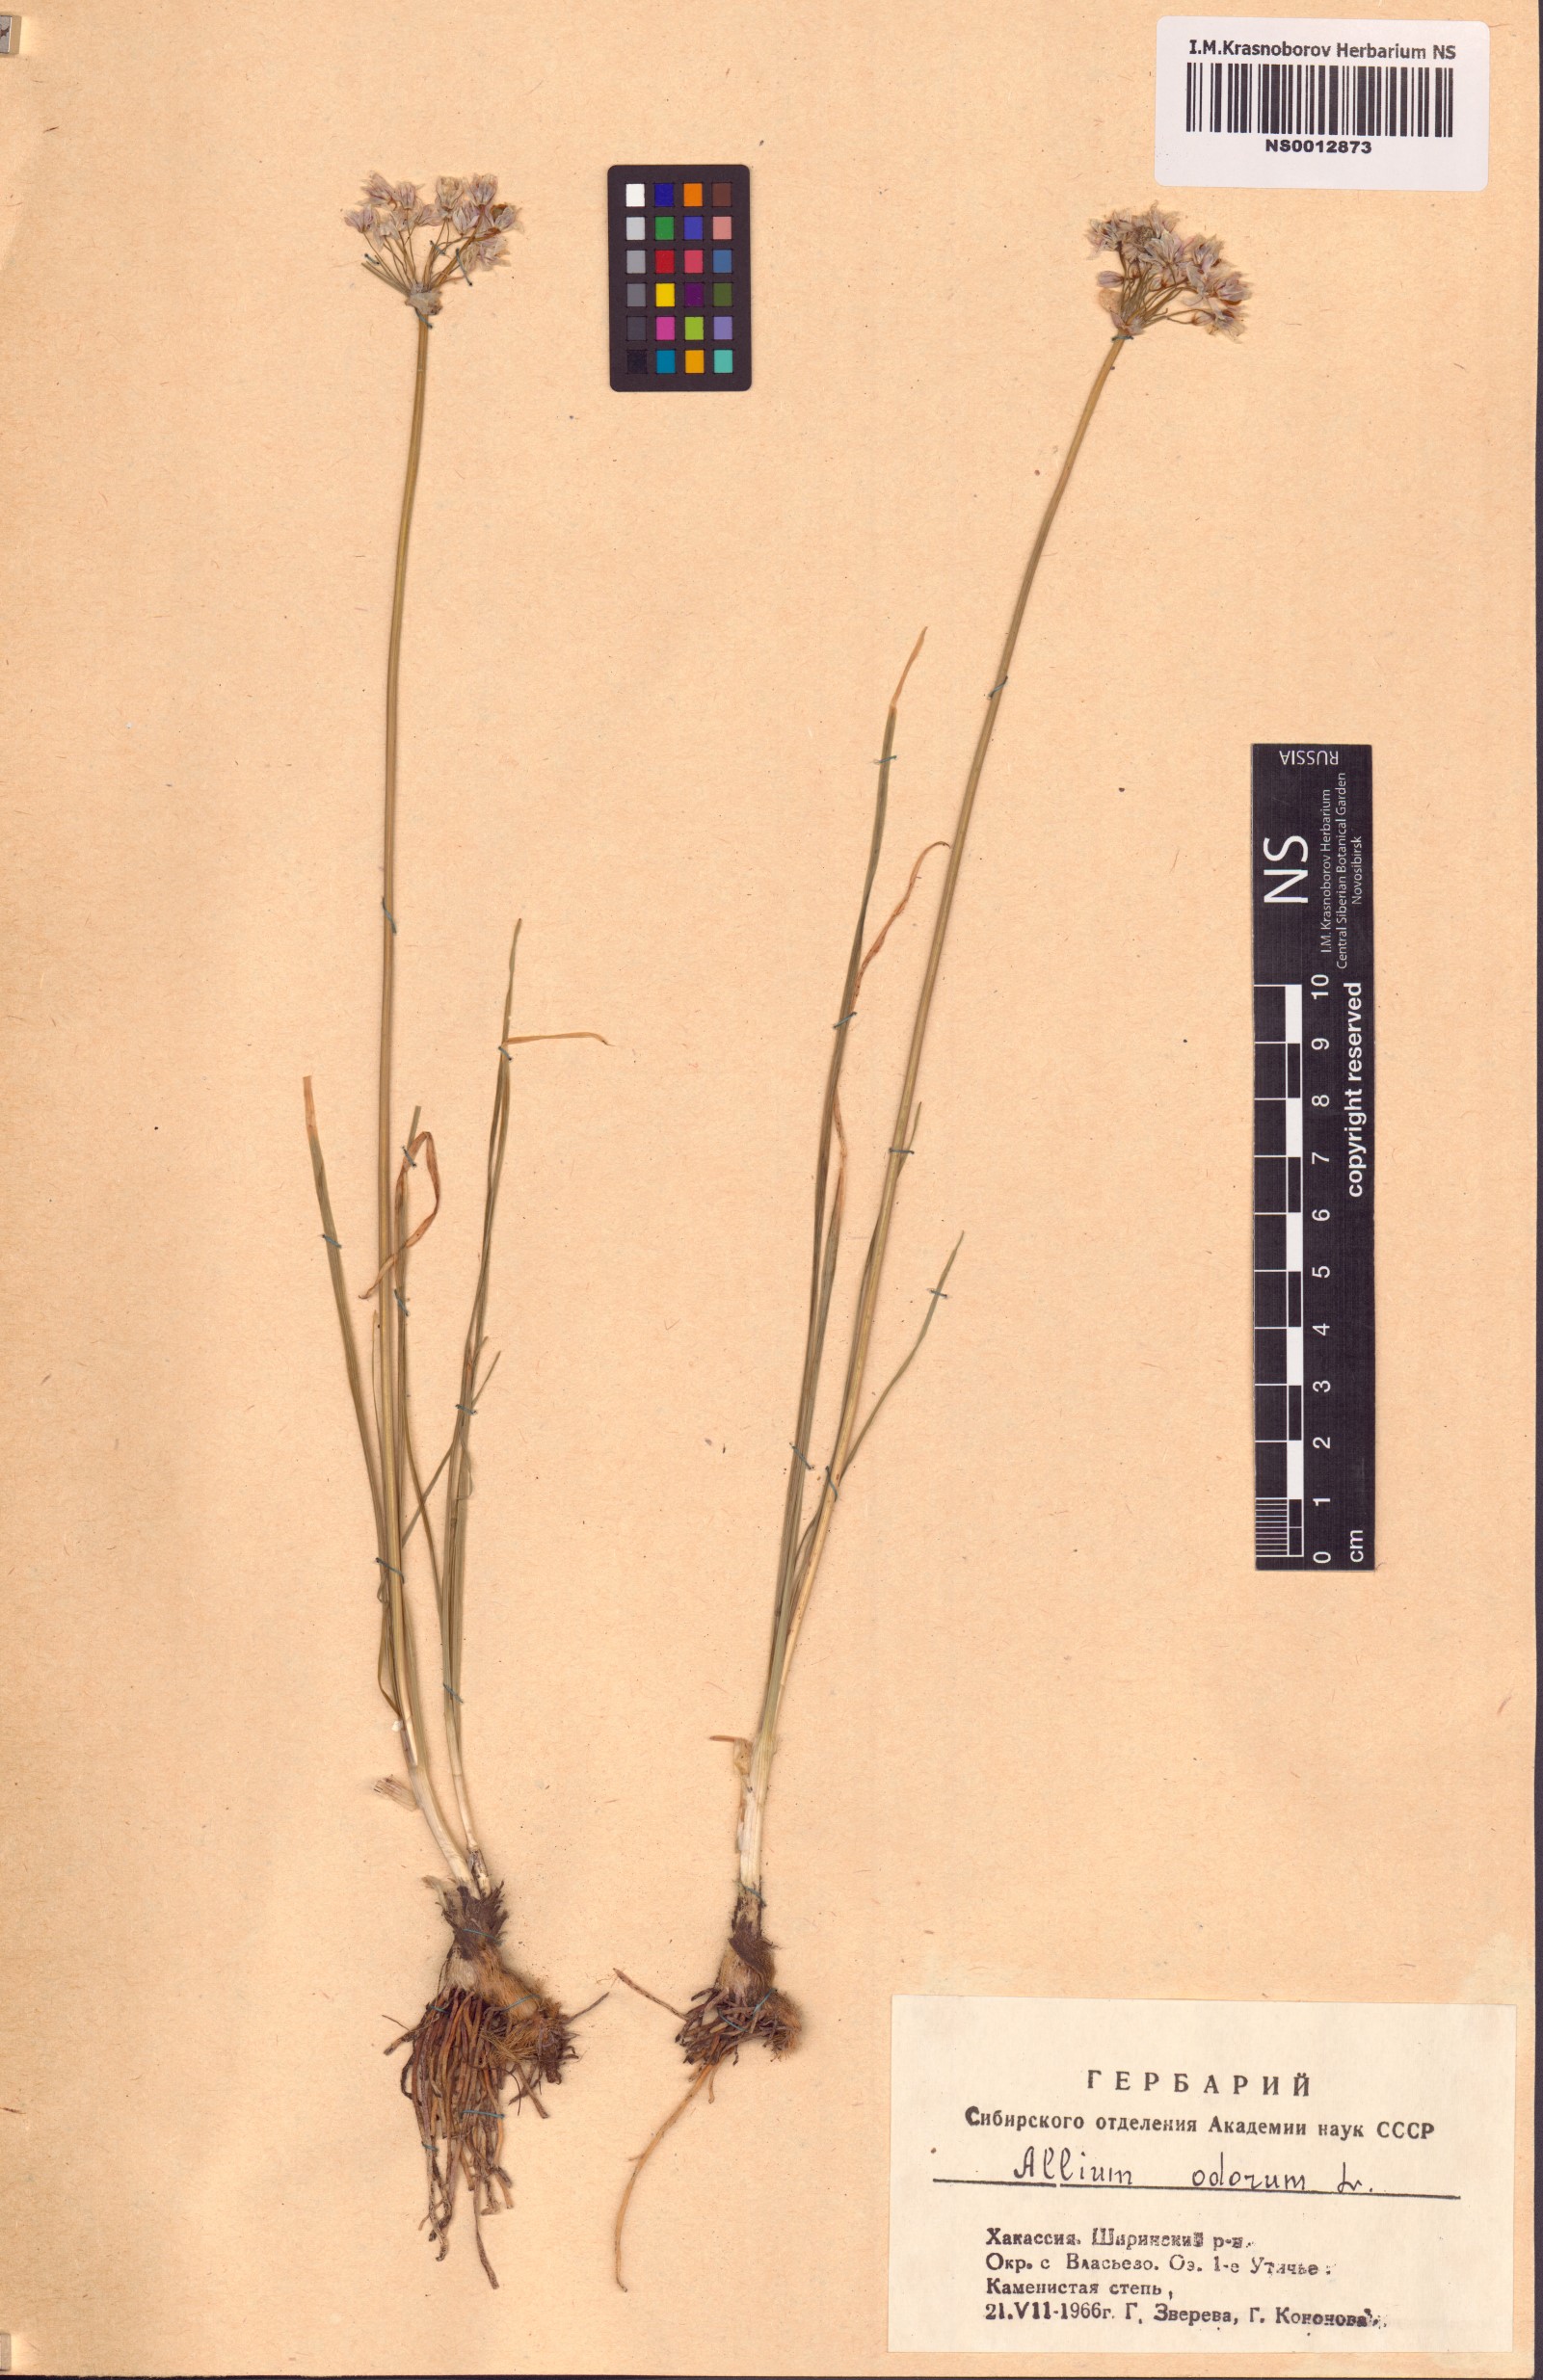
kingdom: Plantae
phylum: Tracheophyta
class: Liliopsida
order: Asparagales
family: Amaryllidaceae
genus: Allium
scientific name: Allium ramosum
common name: Fragrant garlic
